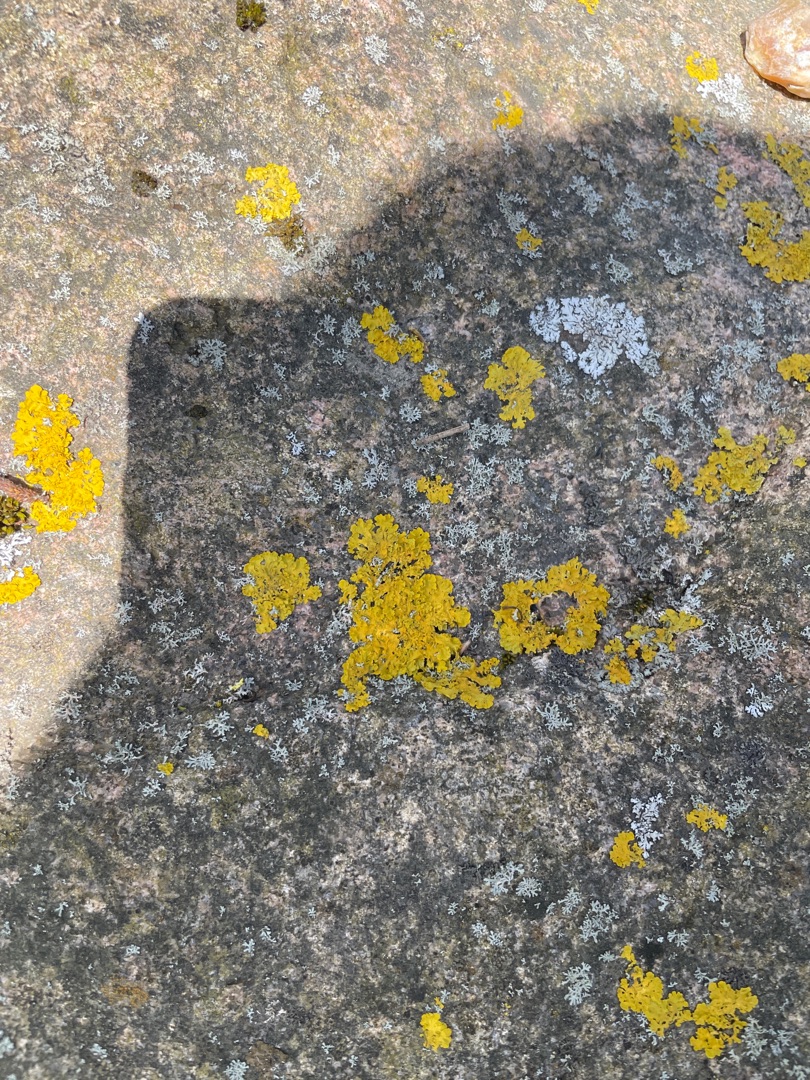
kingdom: Fungi
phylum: Ascomycota
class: Lecanoromycetes
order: Teloschistales
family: Teloschistaceae
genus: Xanthoria
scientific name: Xanthoria parietina
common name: Almindelig væggelav
